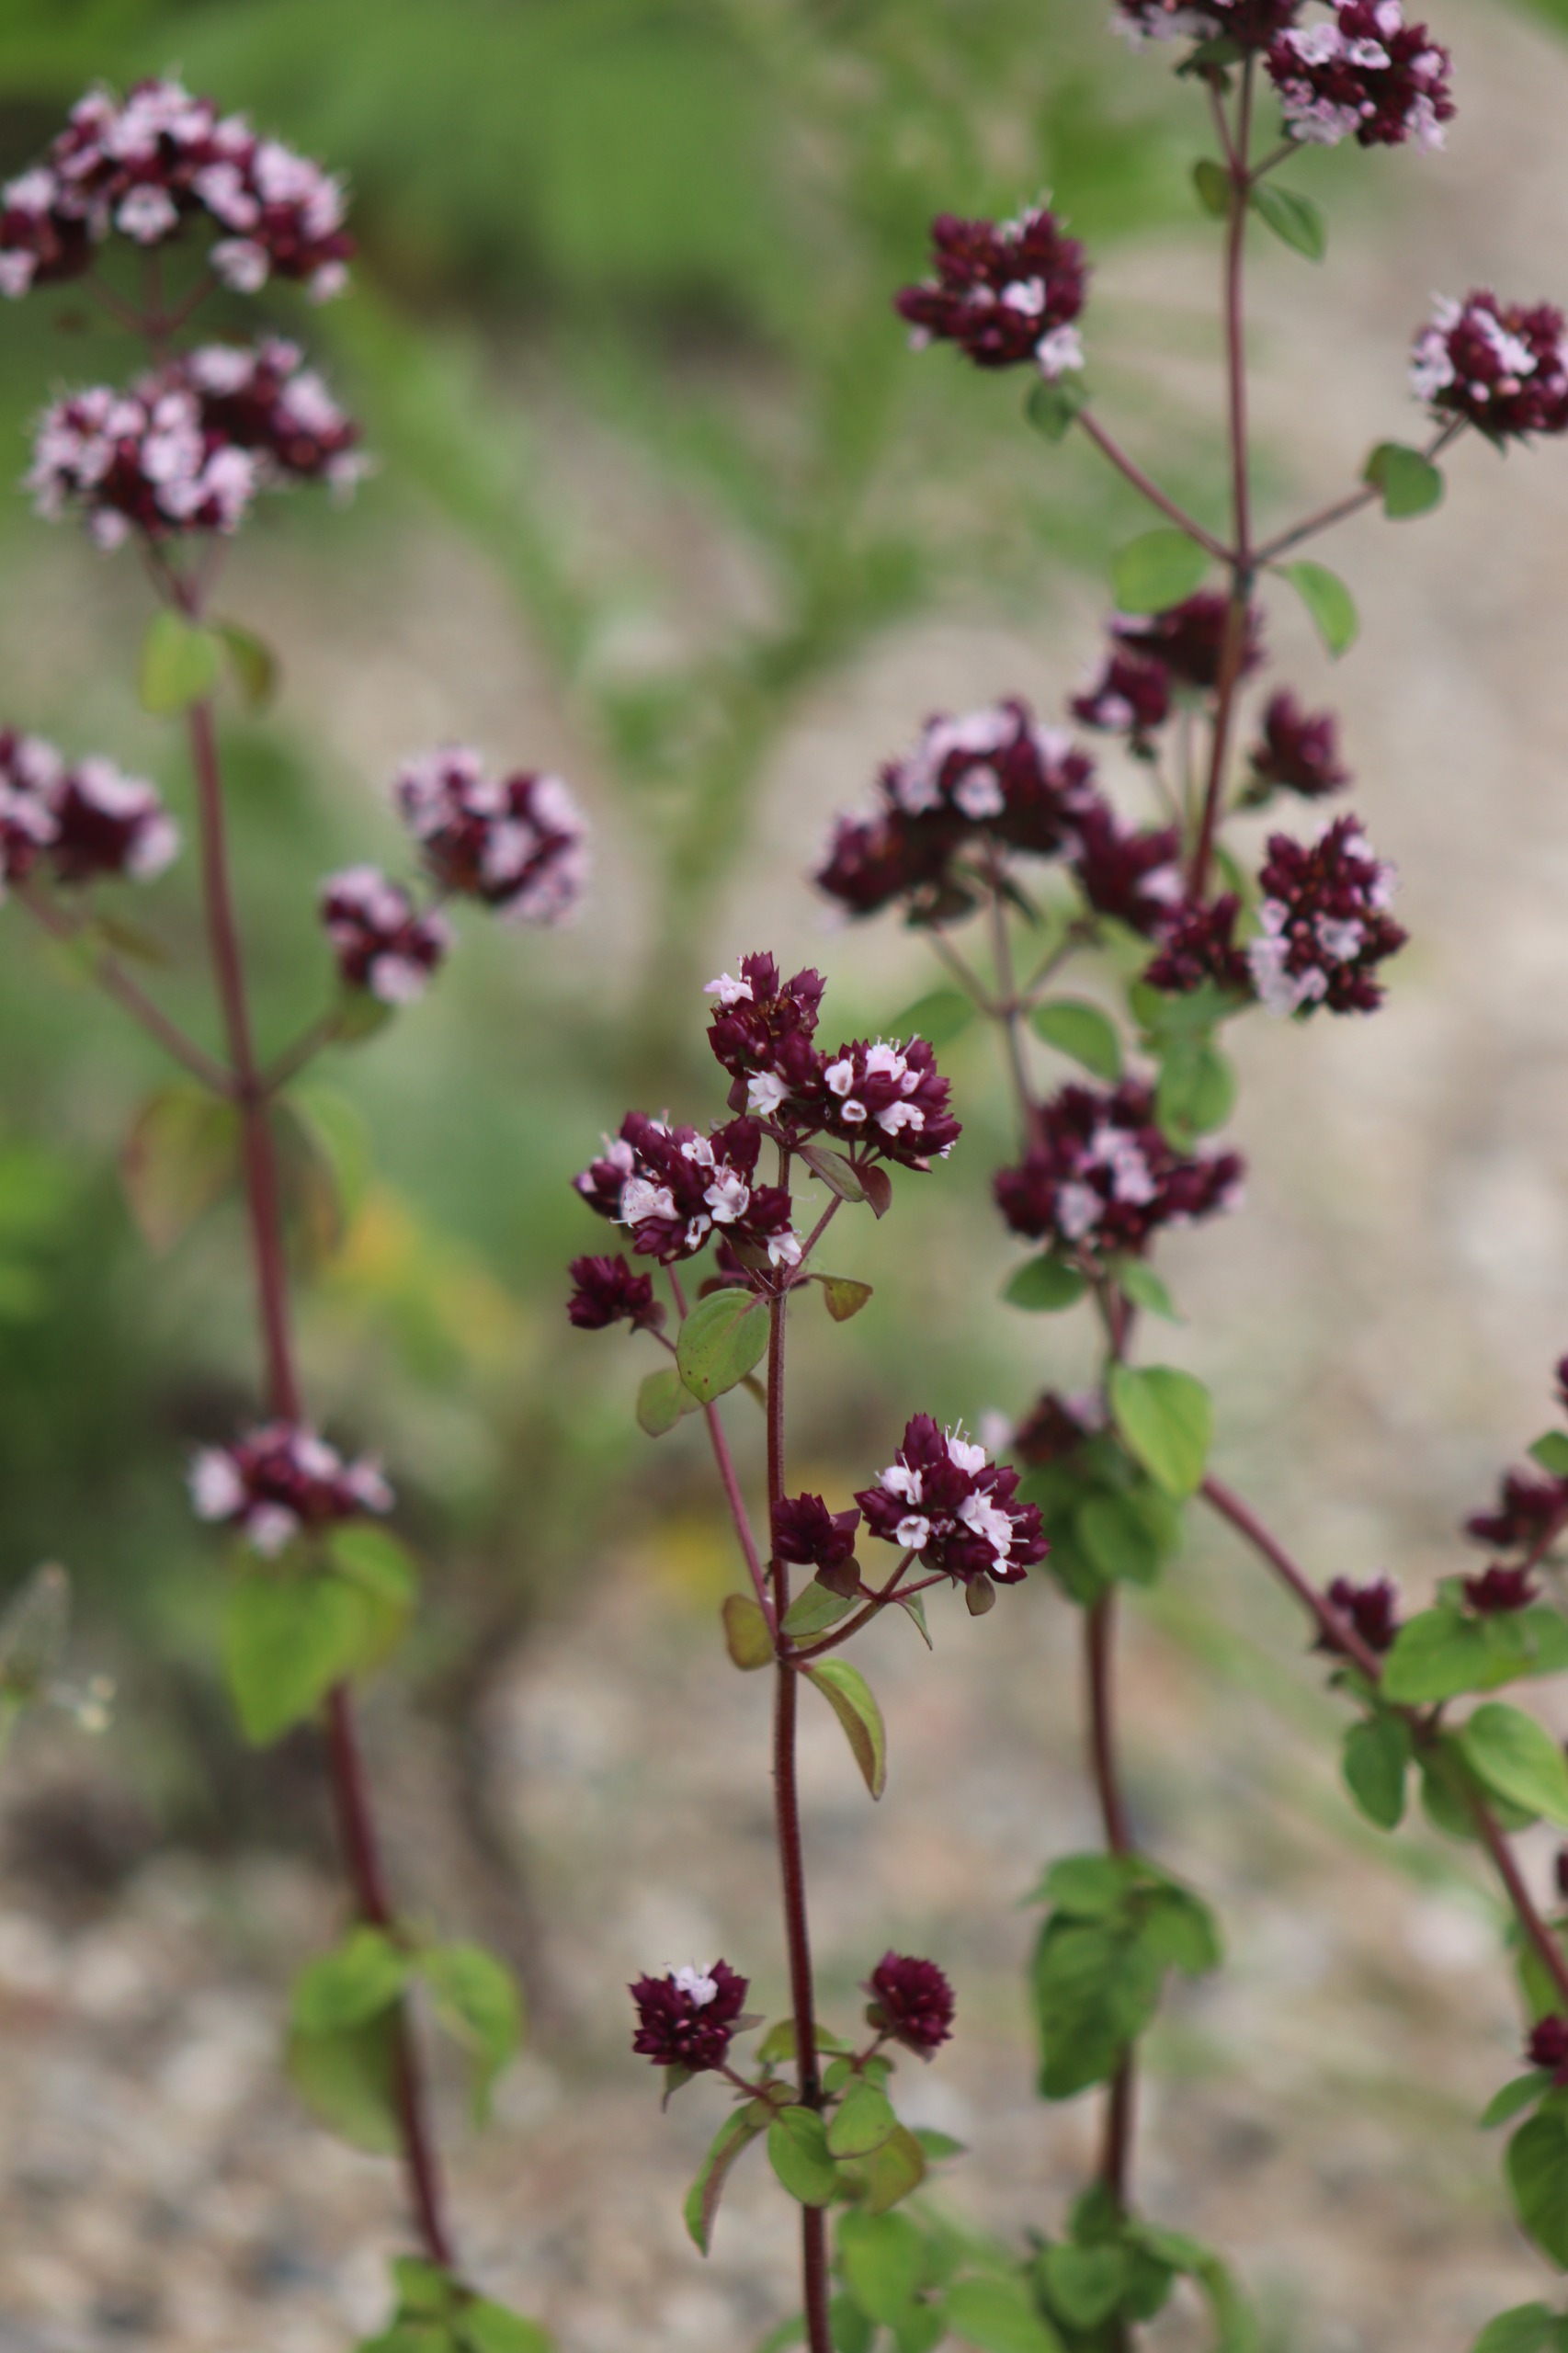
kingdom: Plantae
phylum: Tracheophyta
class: Magnoliopsida
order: Lamiales
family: Lamiaceae
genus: Origanum
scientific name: Origanum vulgare
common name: Merian
